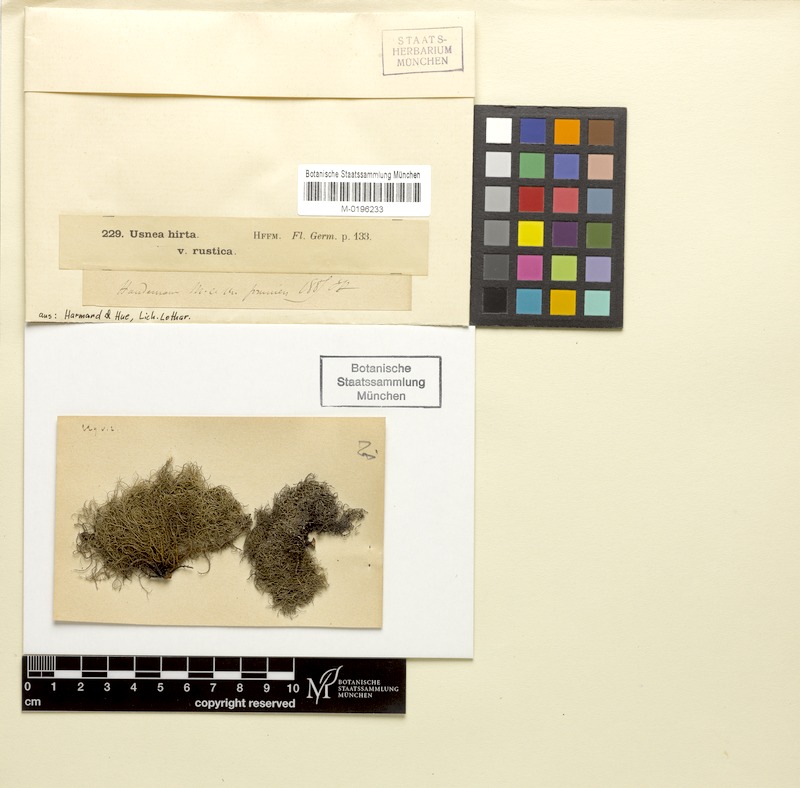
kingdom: Fungi
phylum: Ascomycota
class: Lecanoromycetes
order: Lecanorales
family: Parmeliaceae
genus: Usnea
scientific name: Usnea hirta
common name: Bristly beard lichen
